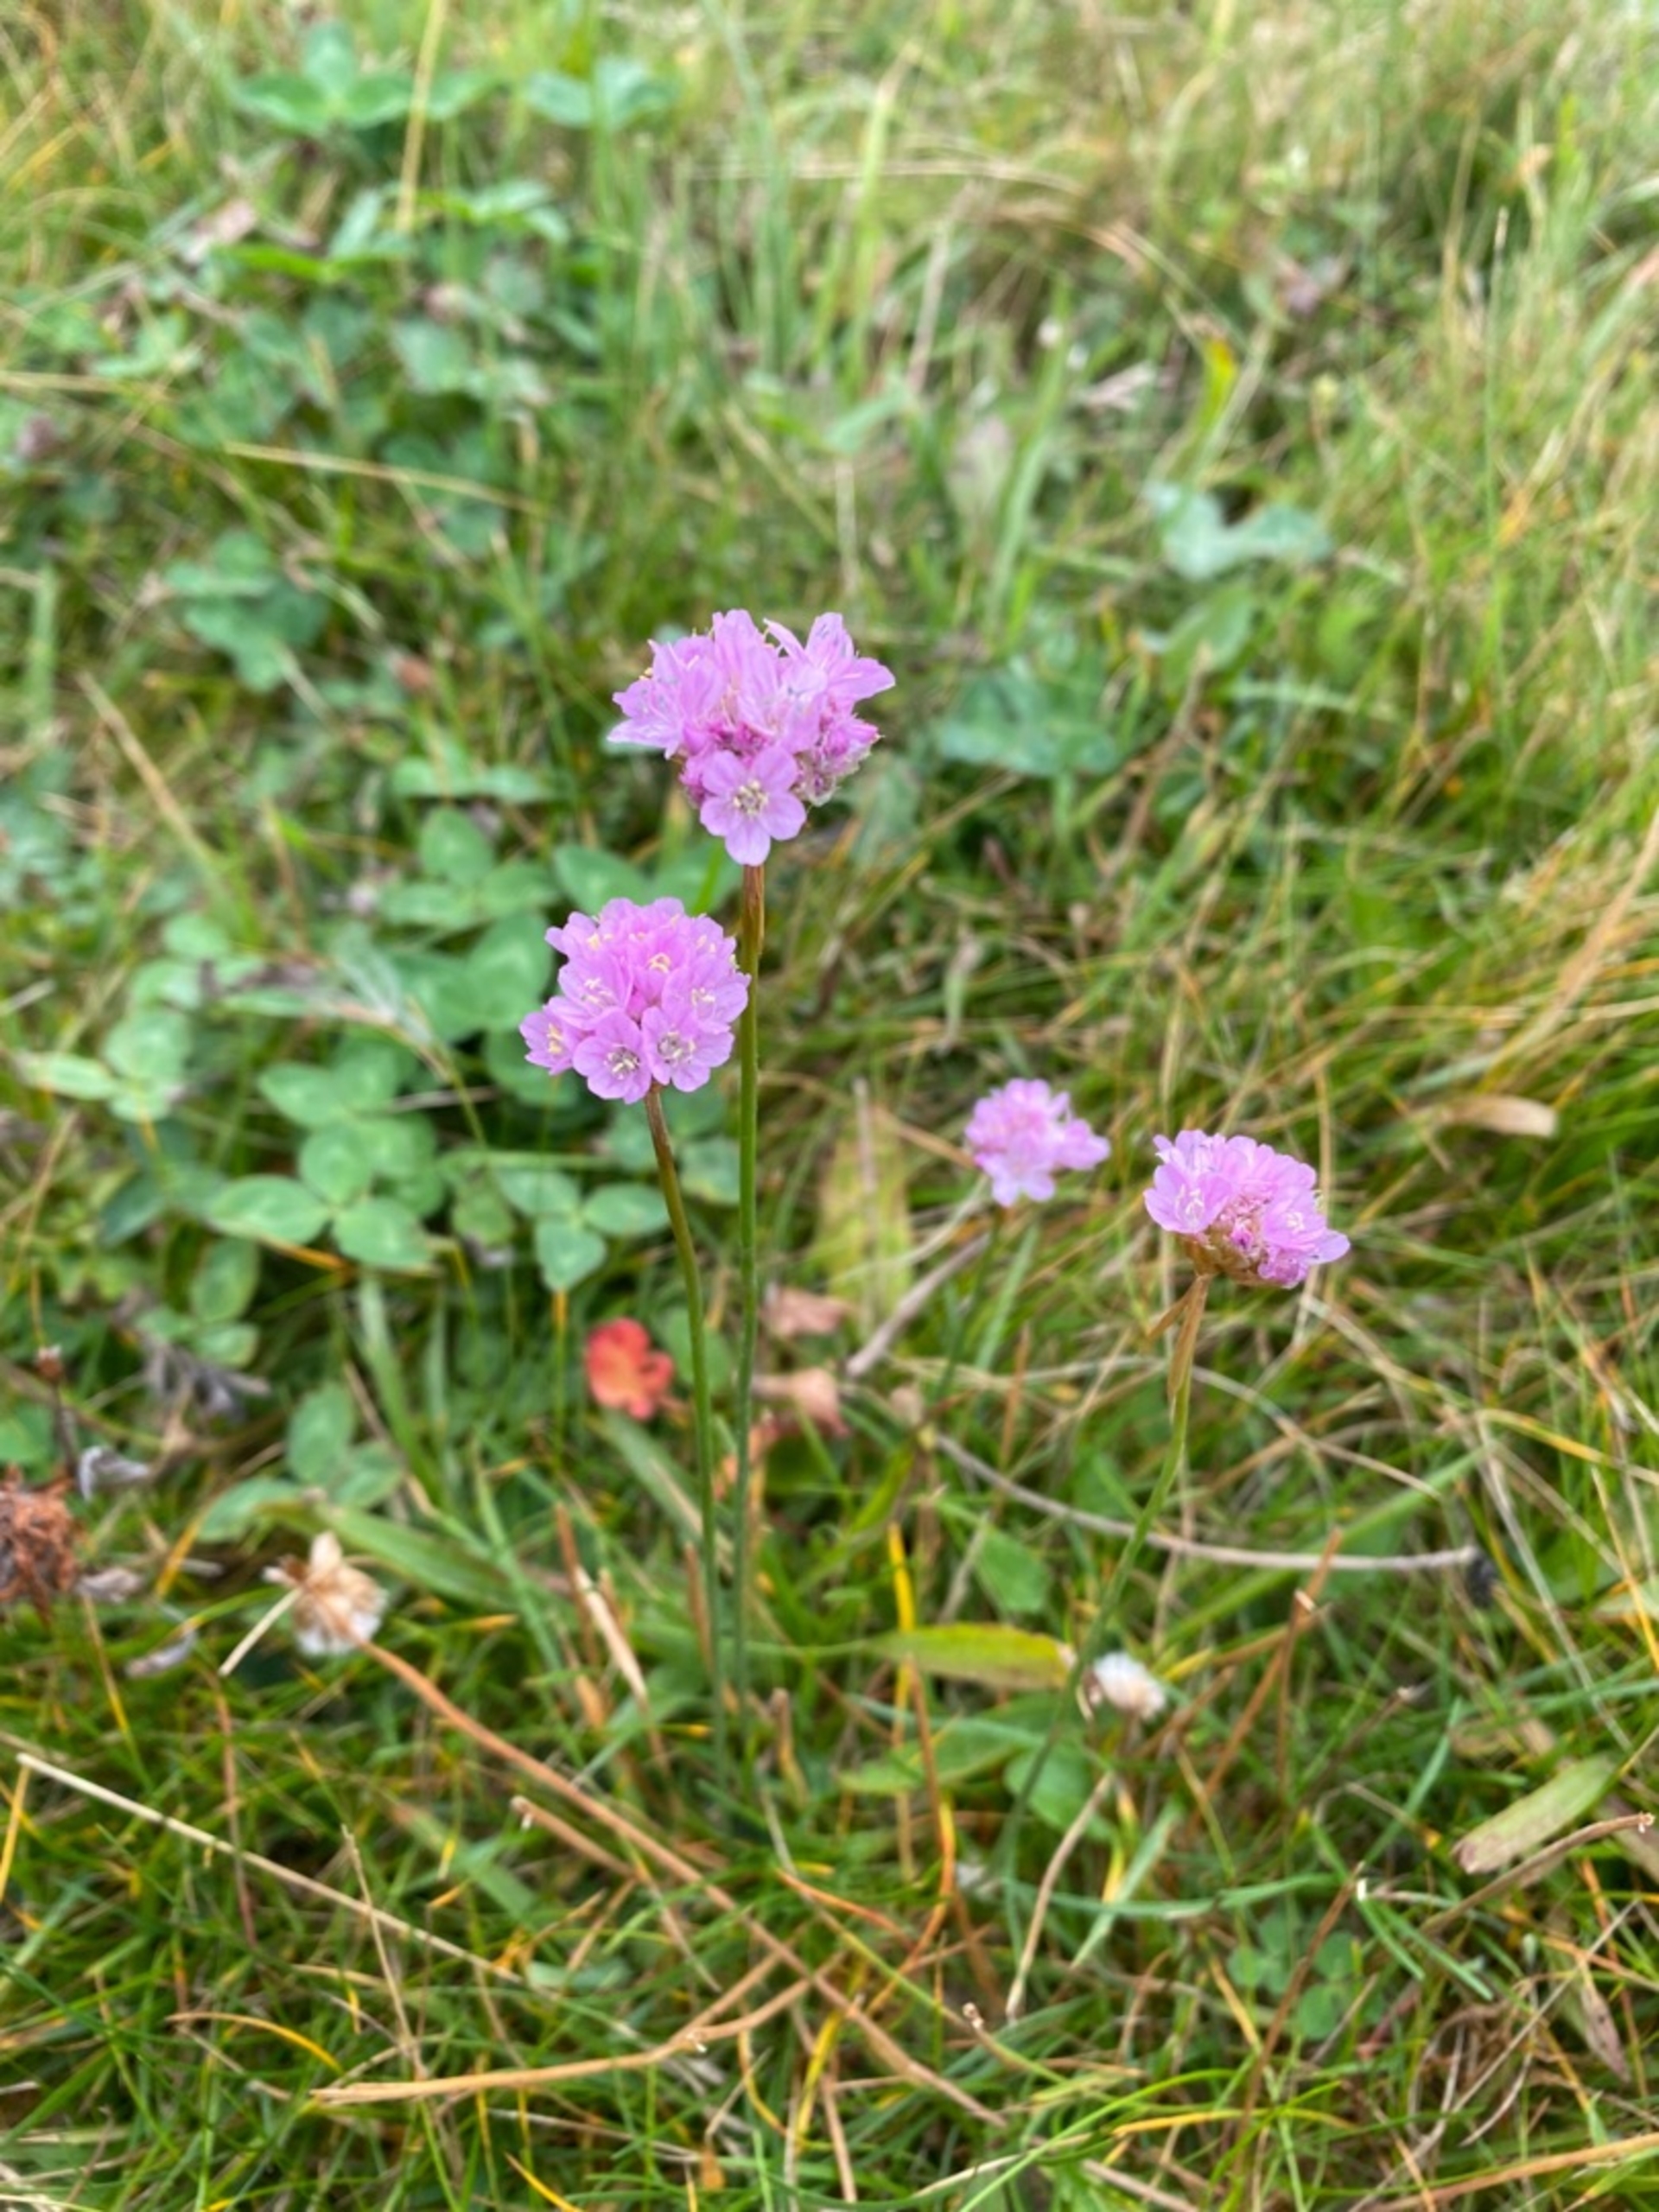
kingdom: Plantae
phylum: Tracheophyta
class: Magnoliopsida
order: Caryophyllales
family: Plumbaginaceae
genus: Armeria
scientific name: Armeria maritima
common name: Engelskgræs
